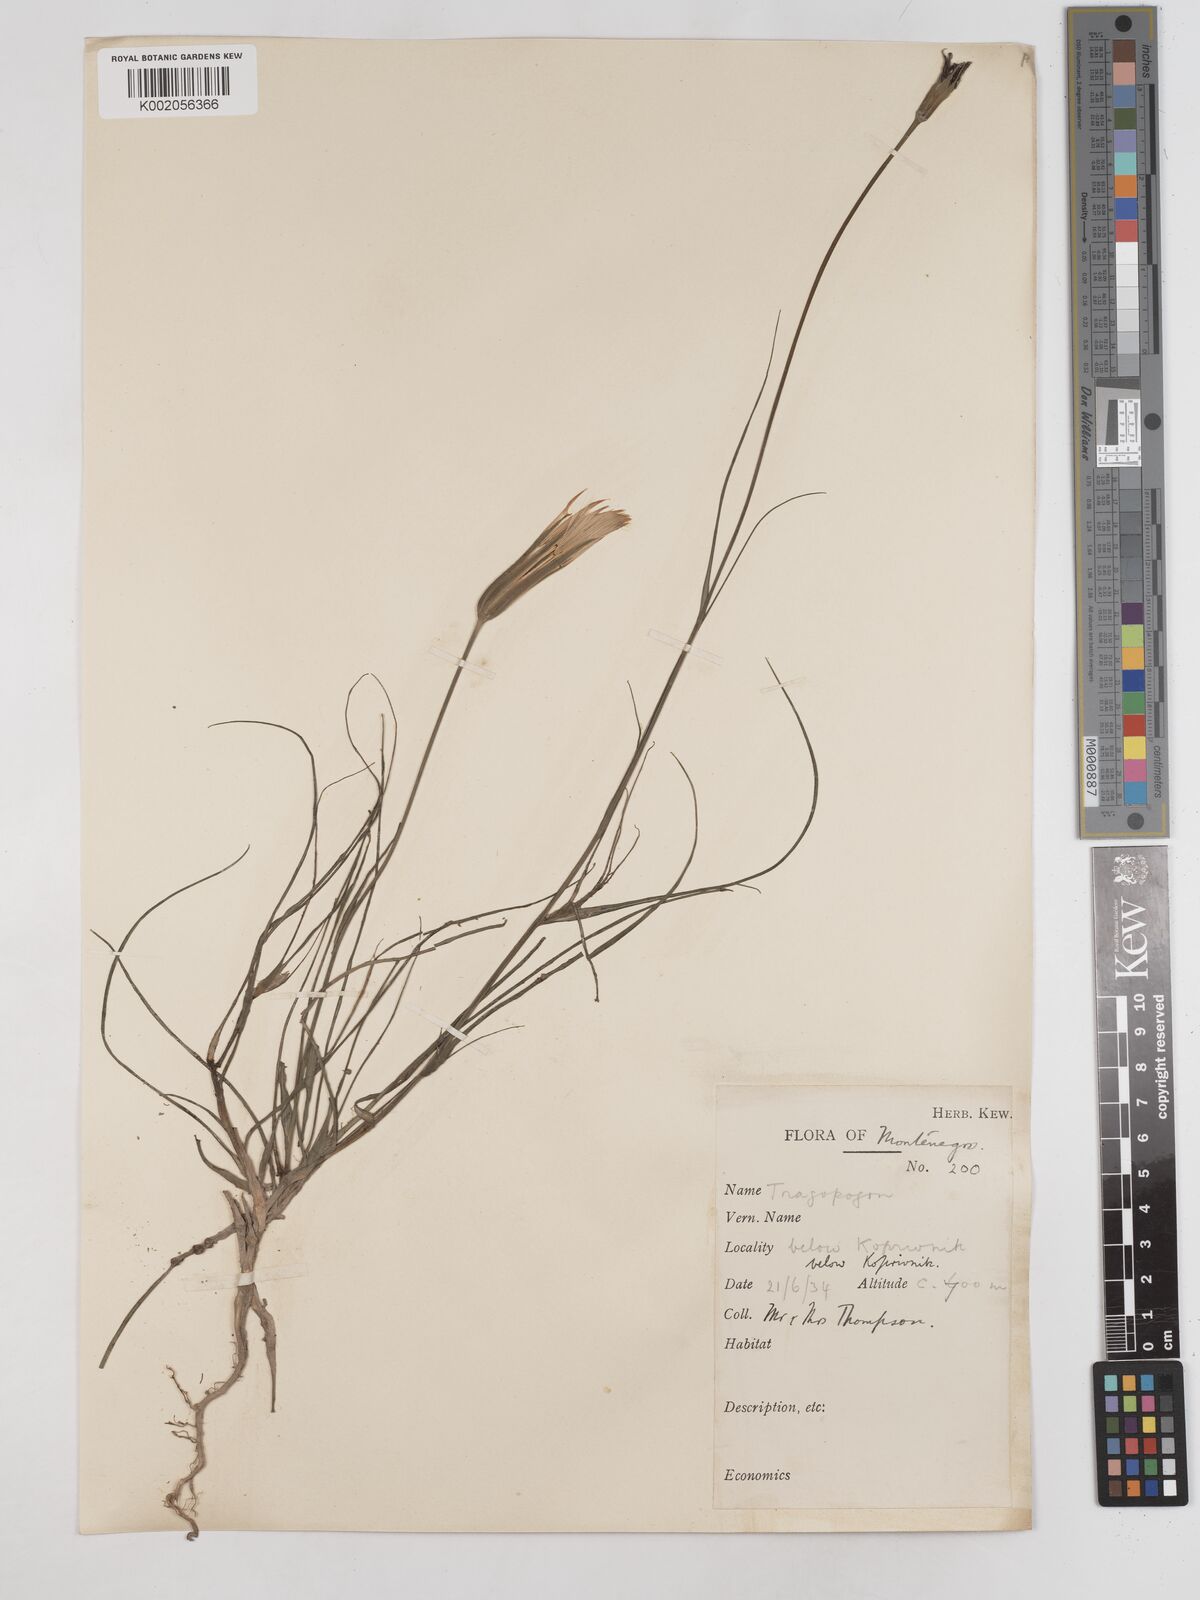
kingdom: Plantae
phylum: Tracheophyta
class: Magnoliopsida
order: Asterales
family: Asteraceae
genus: Tragopogon
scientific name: Tragopogon balcanicus
